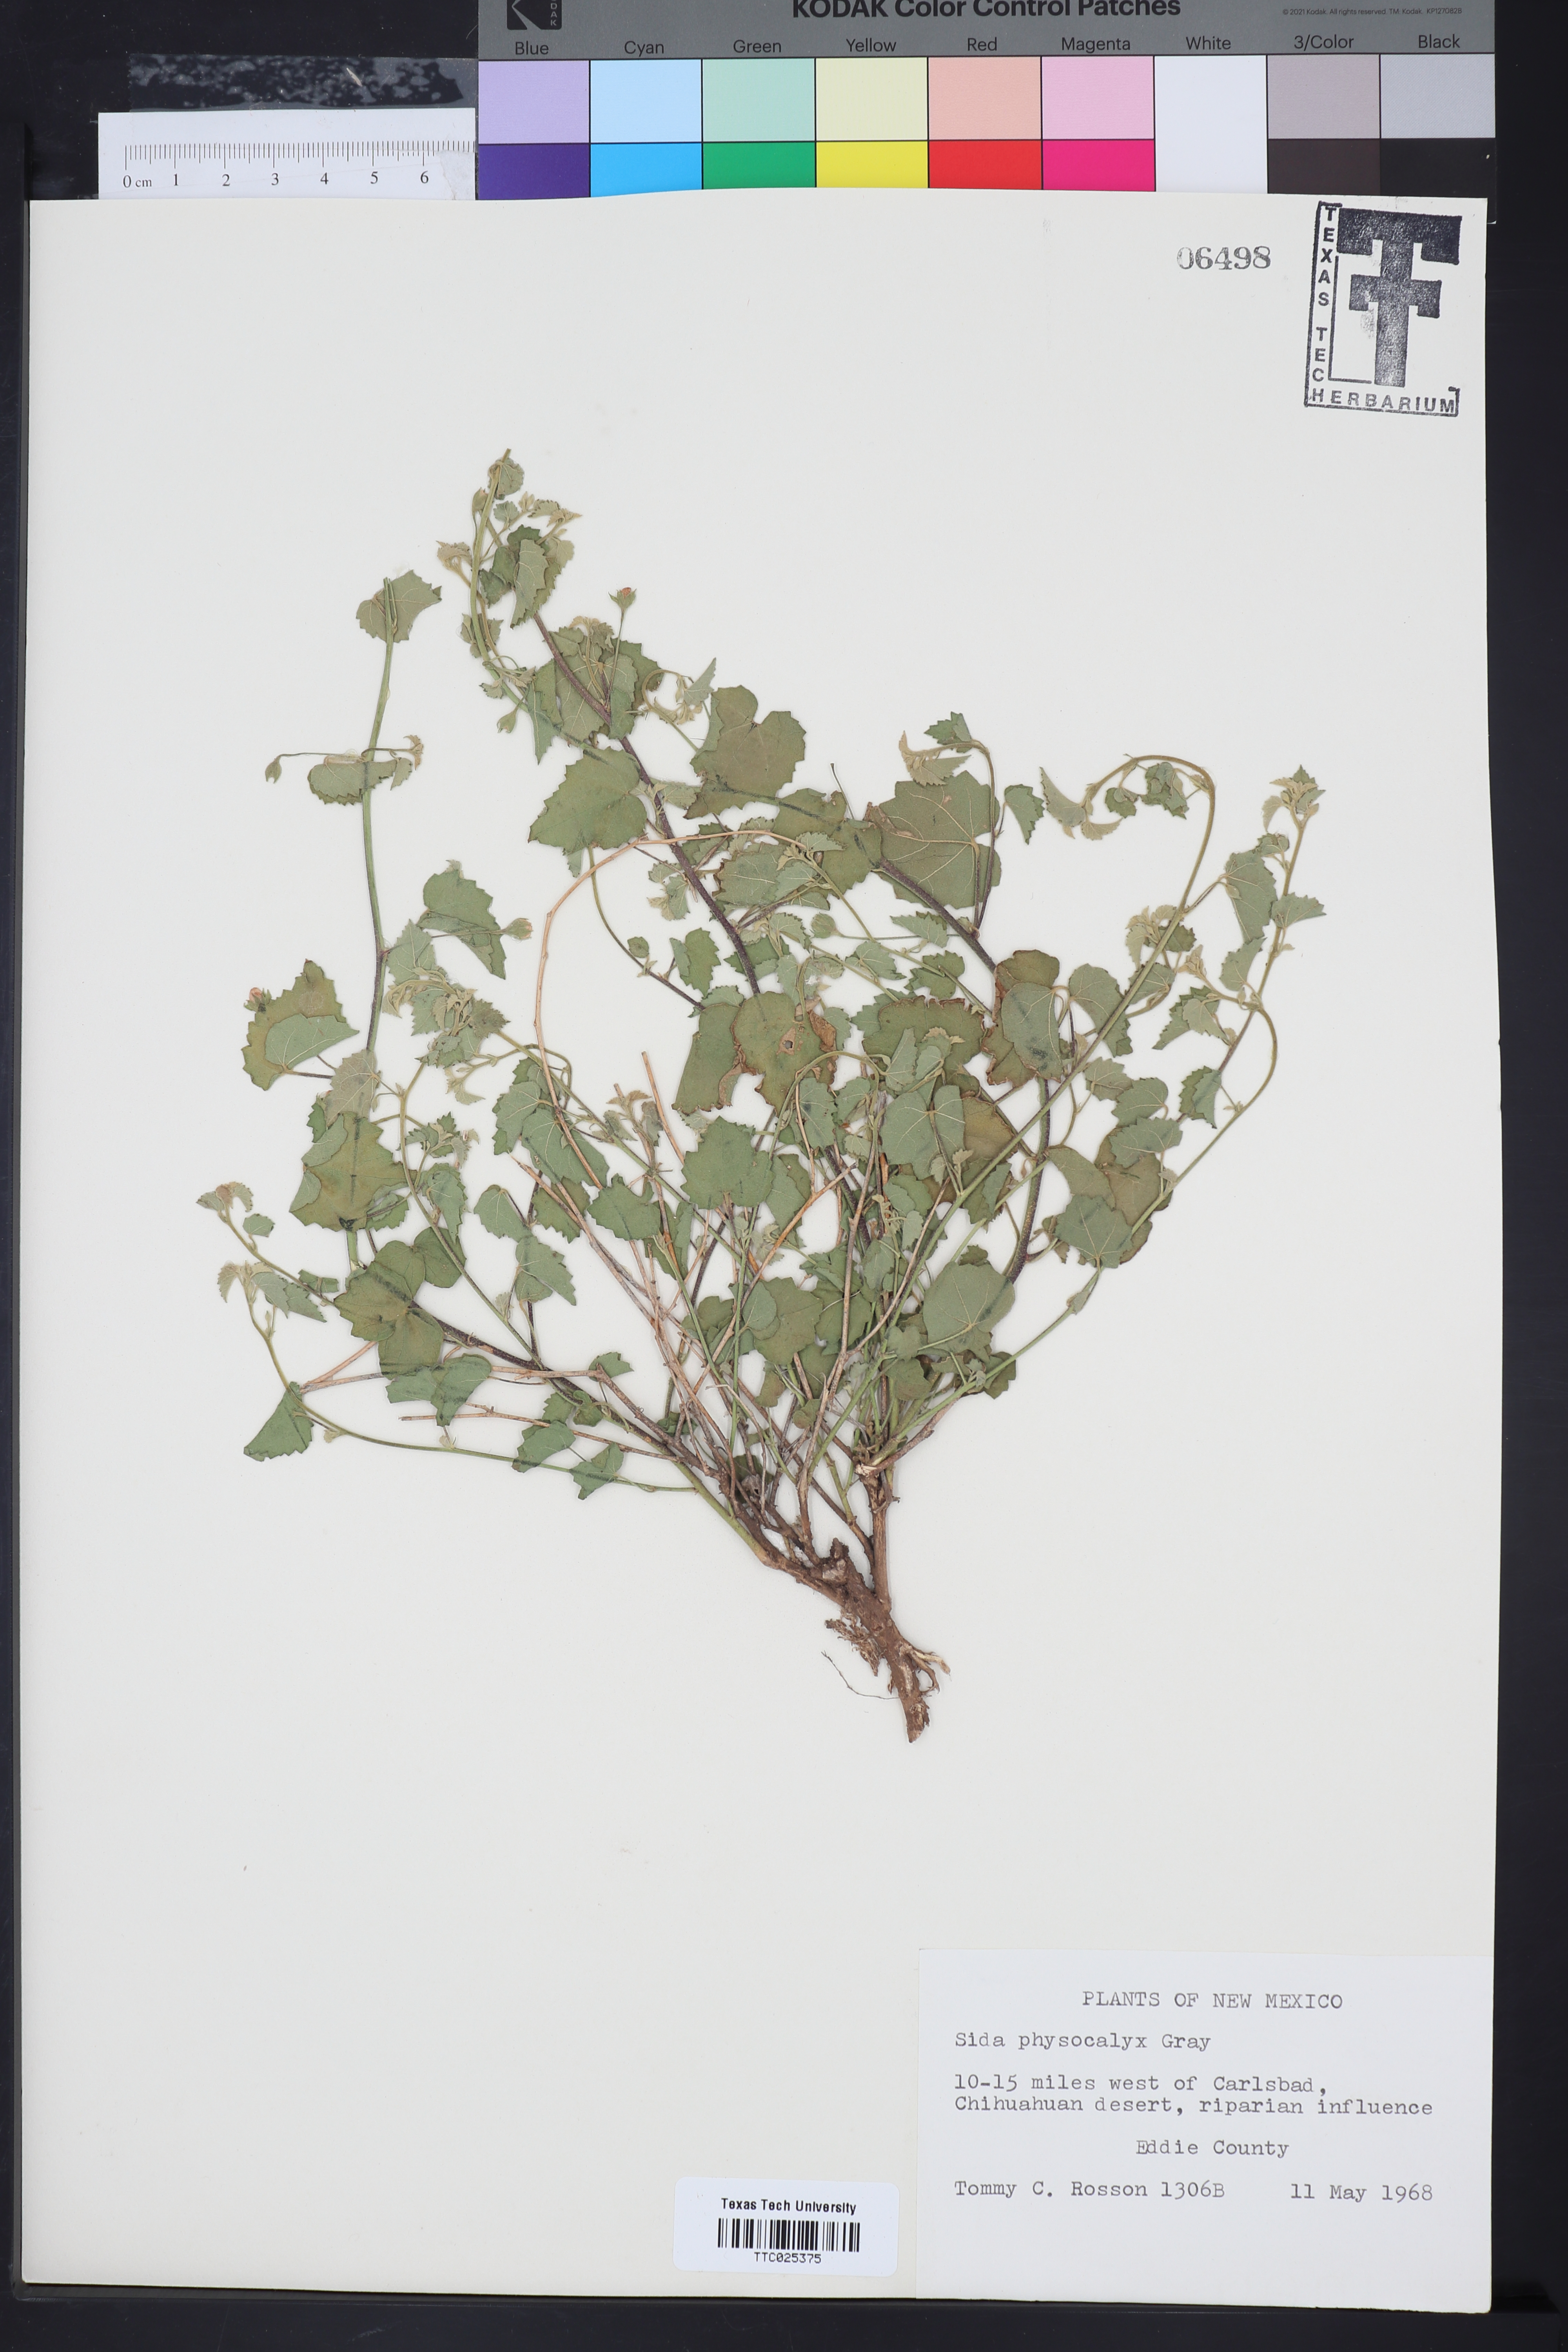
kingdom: Plantae
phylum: Tracheophyta
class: Magnoliopsida
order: Malvales
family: Malvaceae
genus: Rhynchosida
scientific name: Rhynchosida physocalyx
